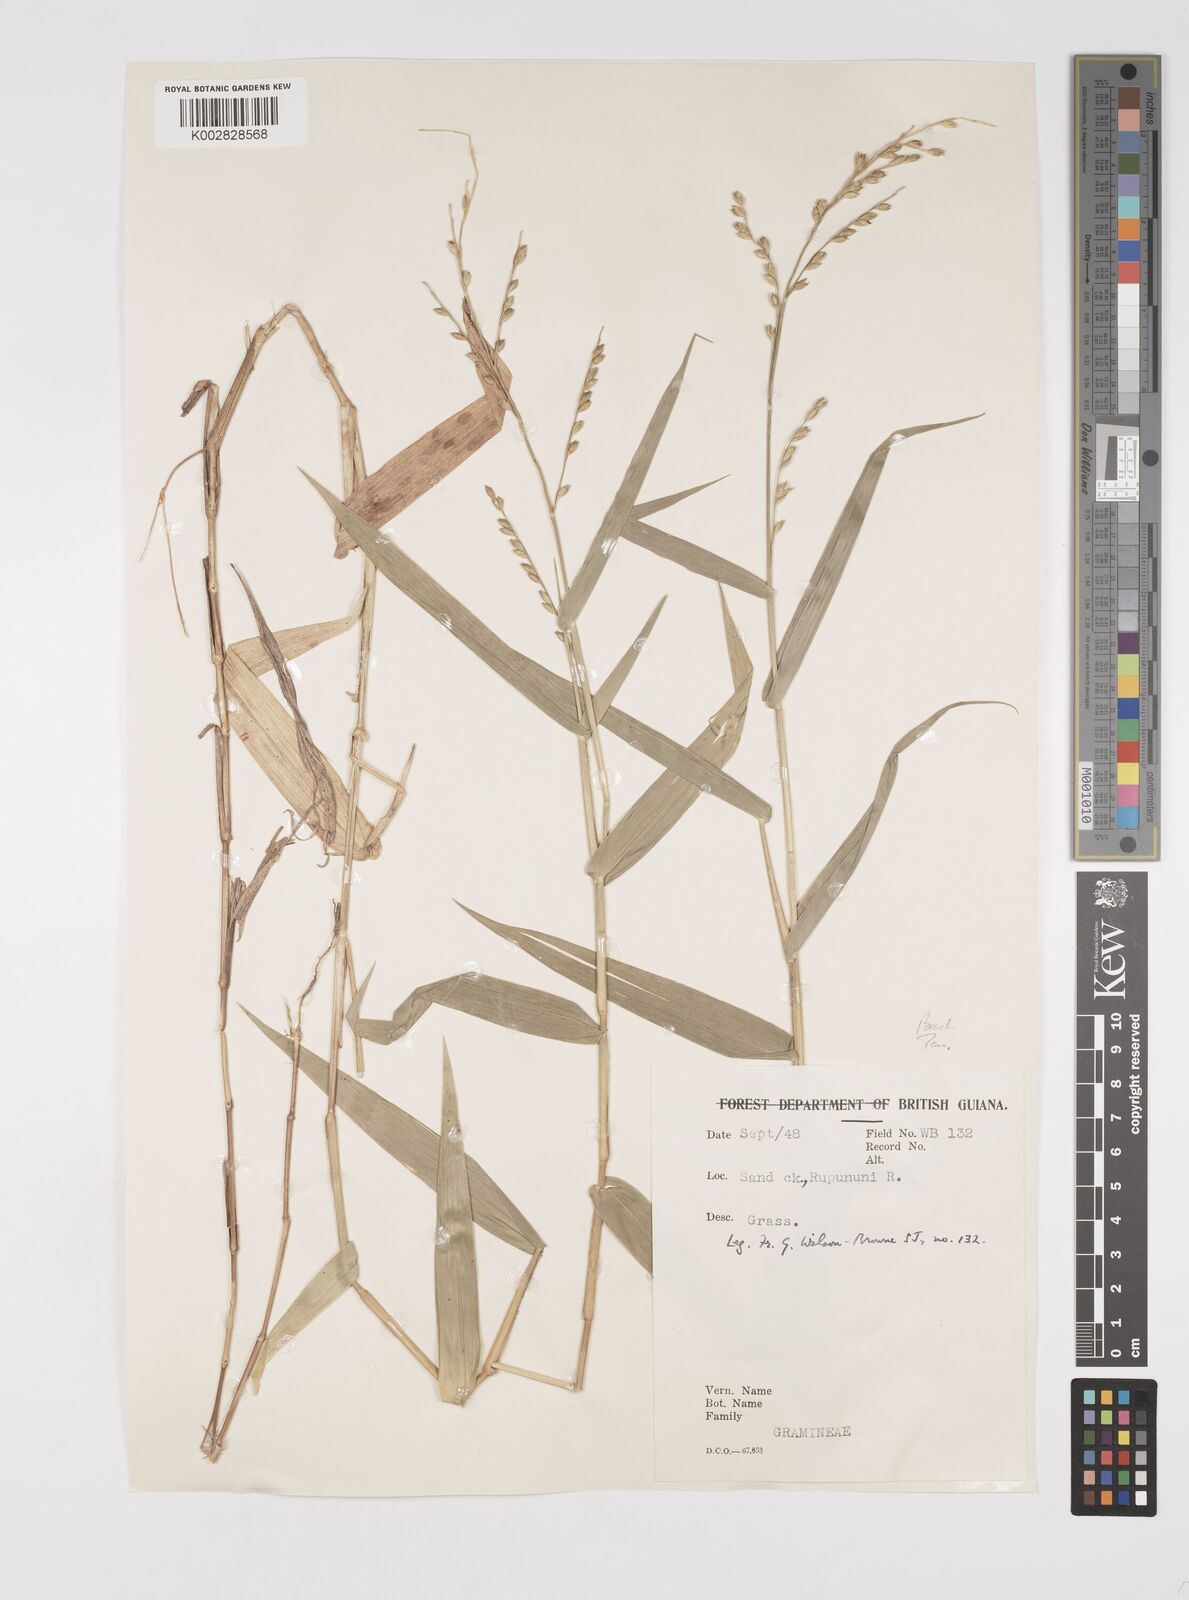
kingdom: Plantae
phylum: Tracheophyta
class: Liliopsida
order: Poales
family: Poaceae
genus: Acroceras
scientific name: Acroceras zizanioides
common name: Oat grass
